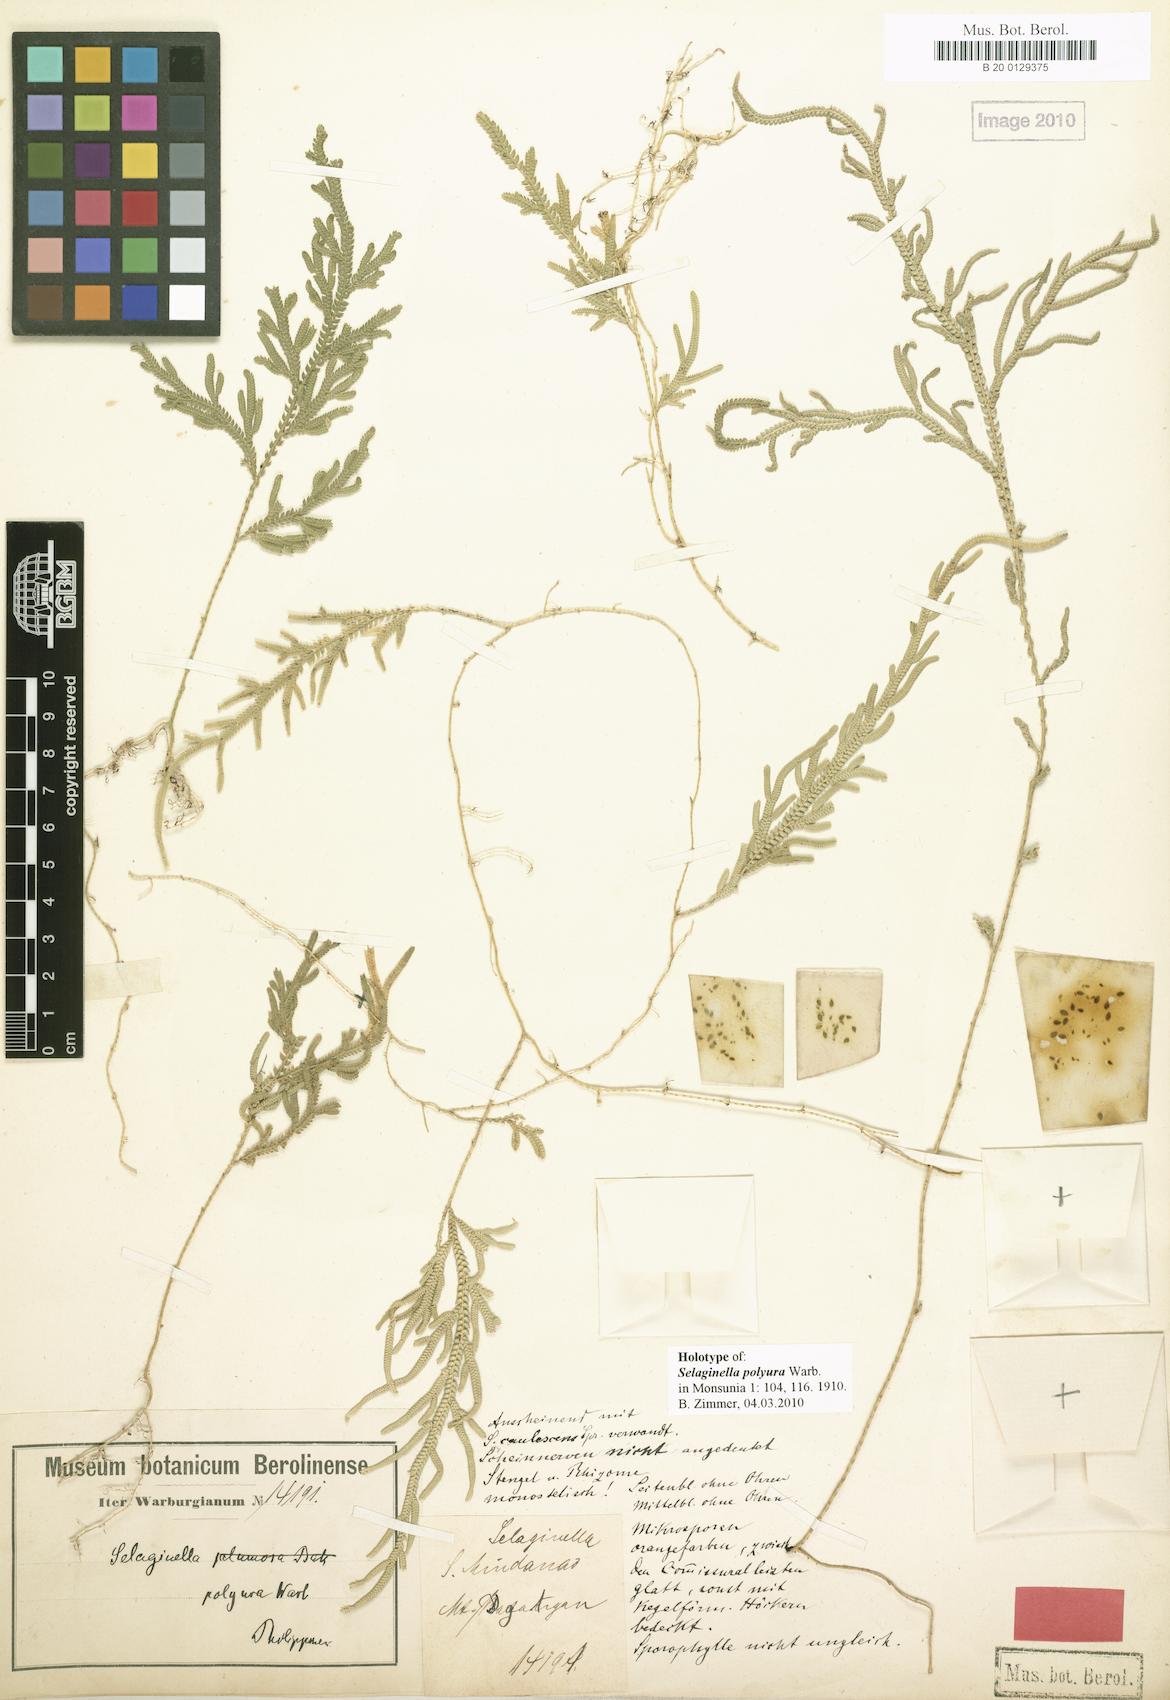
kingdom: Plantae
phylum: Tracheophyta
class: Lycopodiopsida
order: Selaginellales
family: Selaginellaceae
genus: Selaginella
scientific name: Selaginella involvens
